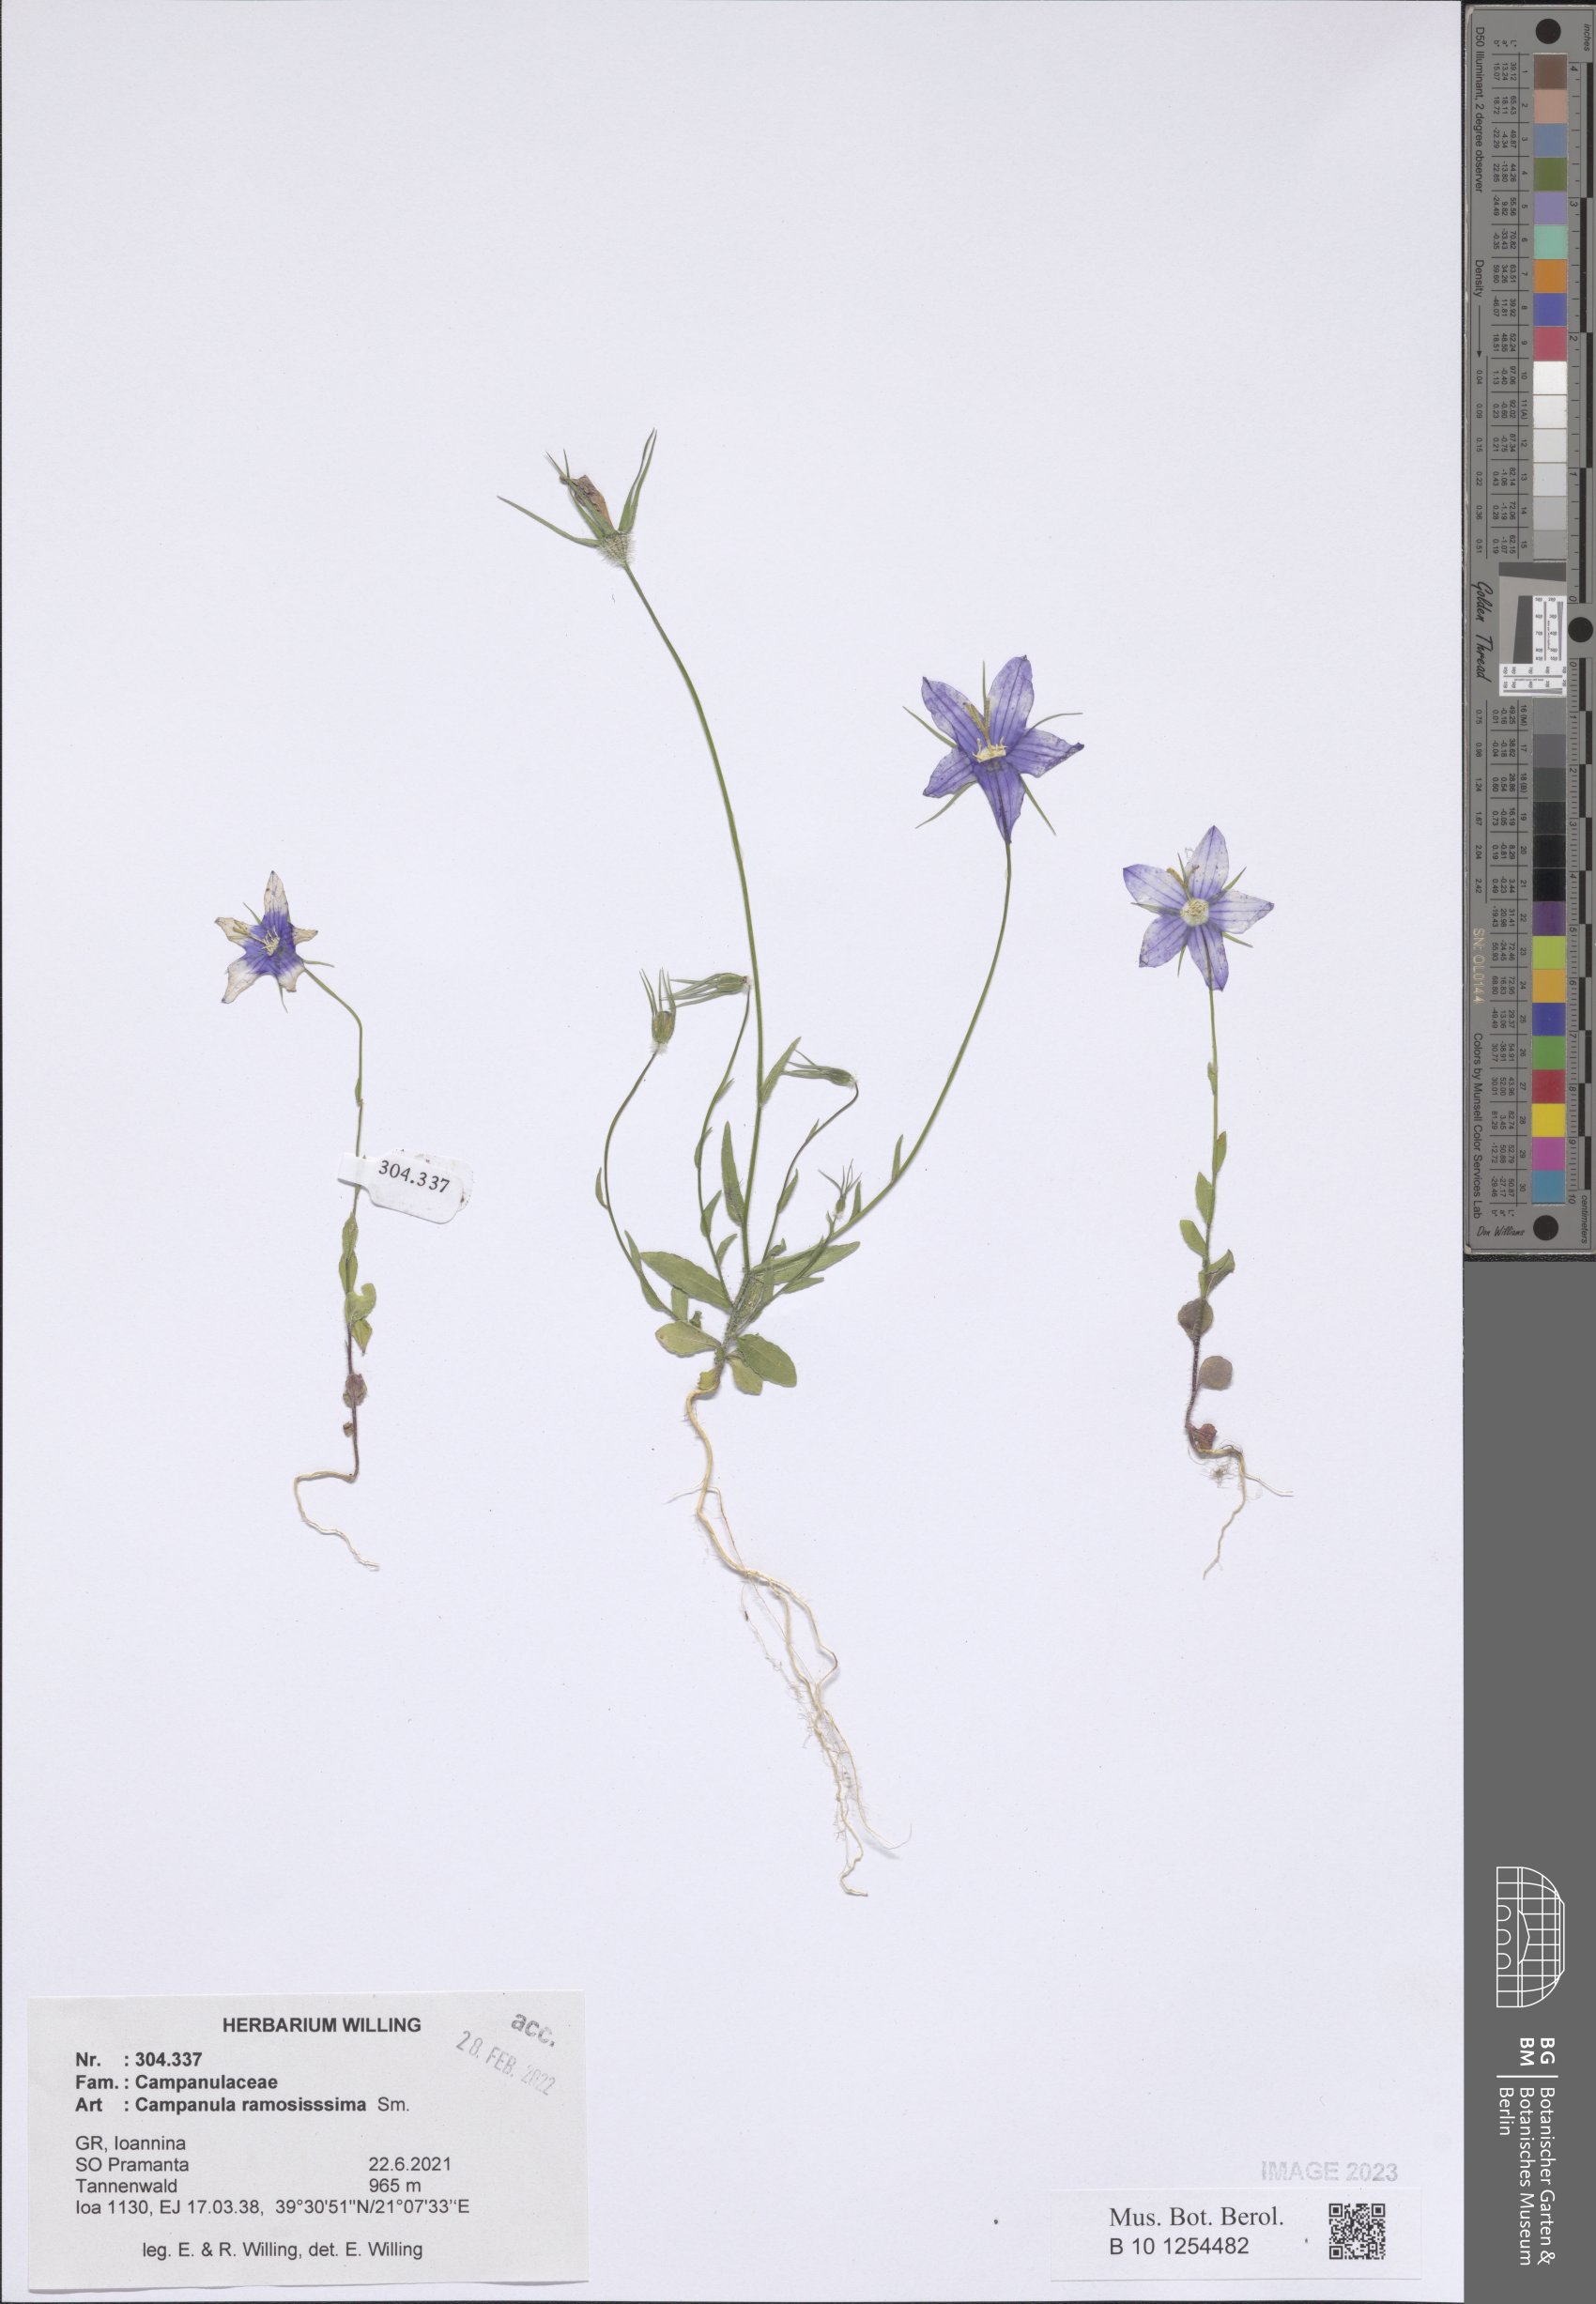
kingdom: Plantae
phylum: Tracheophyta
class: Magnoliopsida
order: Asterales
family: Campanulaceae
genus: Campanula
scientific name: Campanula ramosissima
